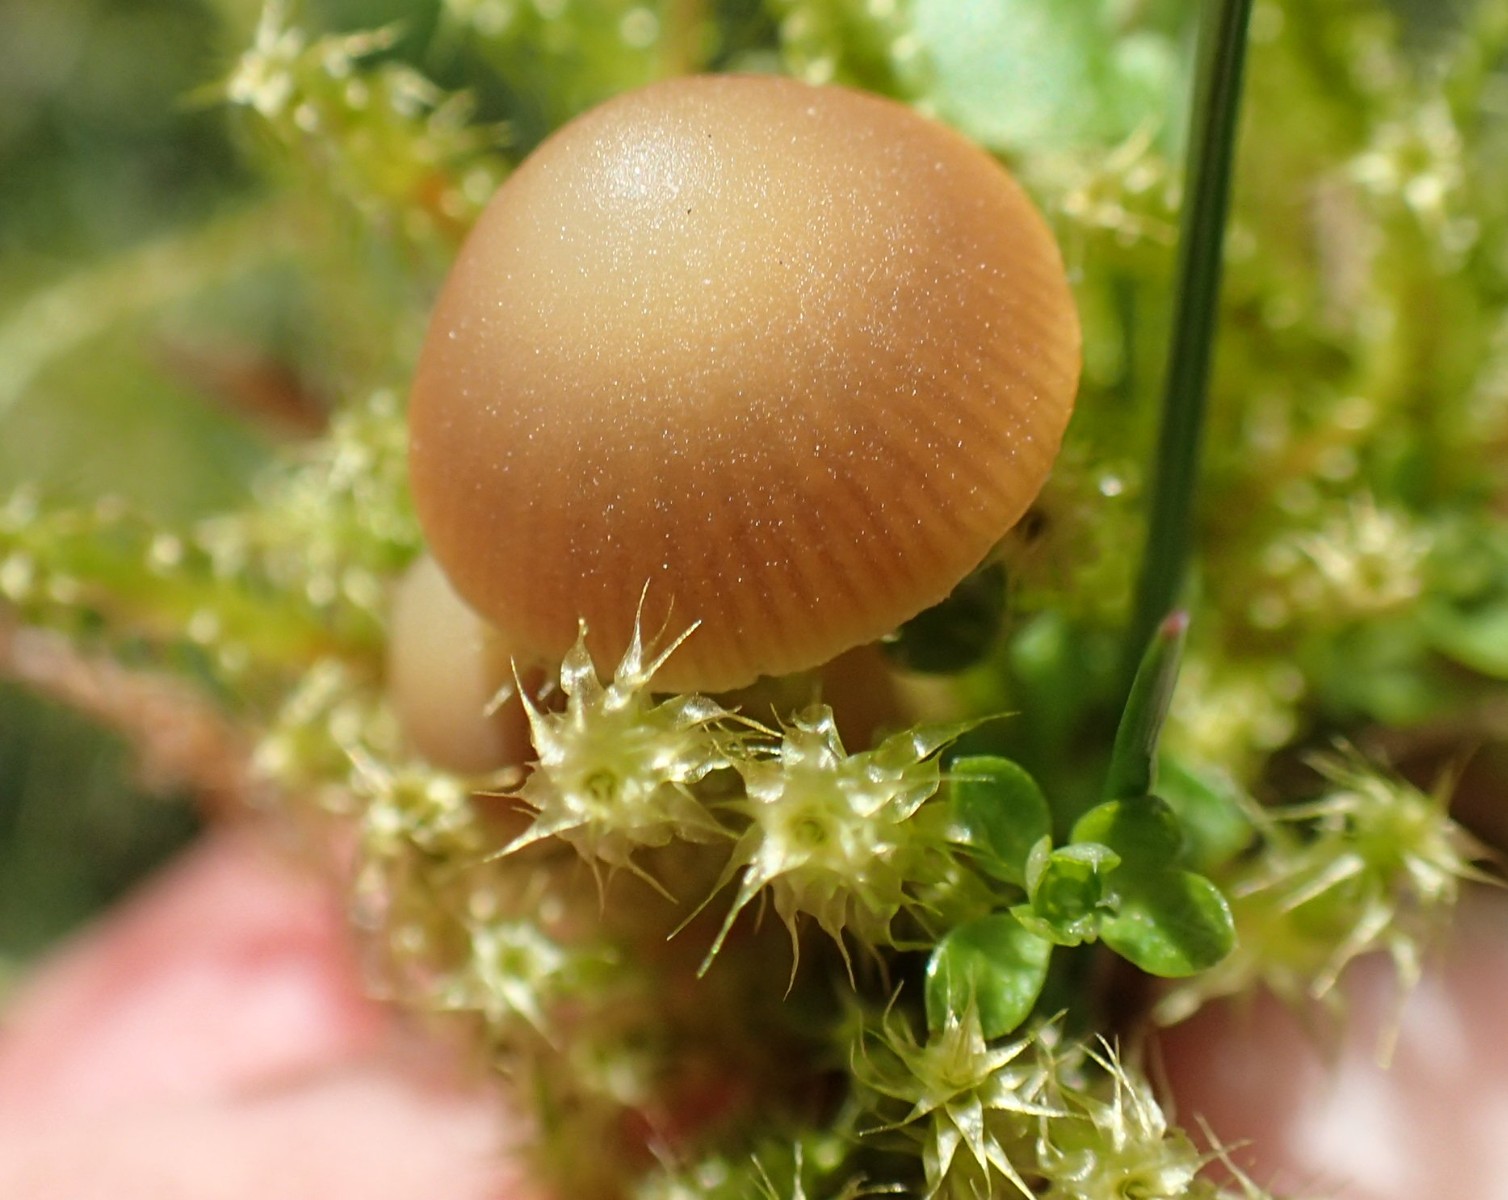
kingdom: Fungi
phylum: Basidiomycota
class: Agaricomycetes
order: Agaricales
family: Hymenogastraceae
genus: Galerina
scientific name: Galerina mniophila
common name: olivengul hjelmhat
